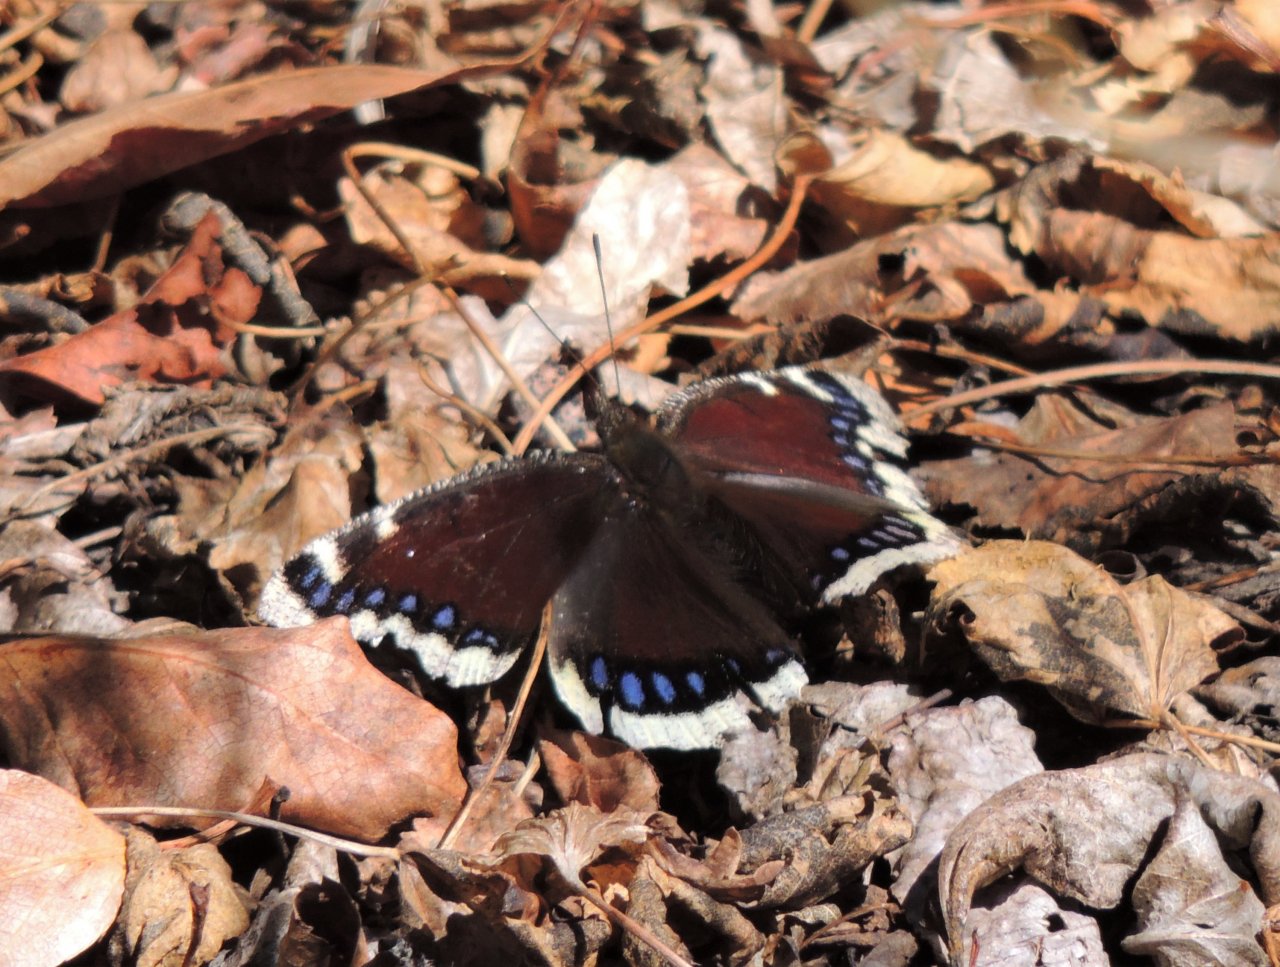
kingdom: Animalia
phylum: Arthropoda
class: Insecta
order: Lepidoptera
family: Nymphalidae
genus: Nymphalis
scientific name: Nymphalis antiopa
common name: Mourning Cloak
